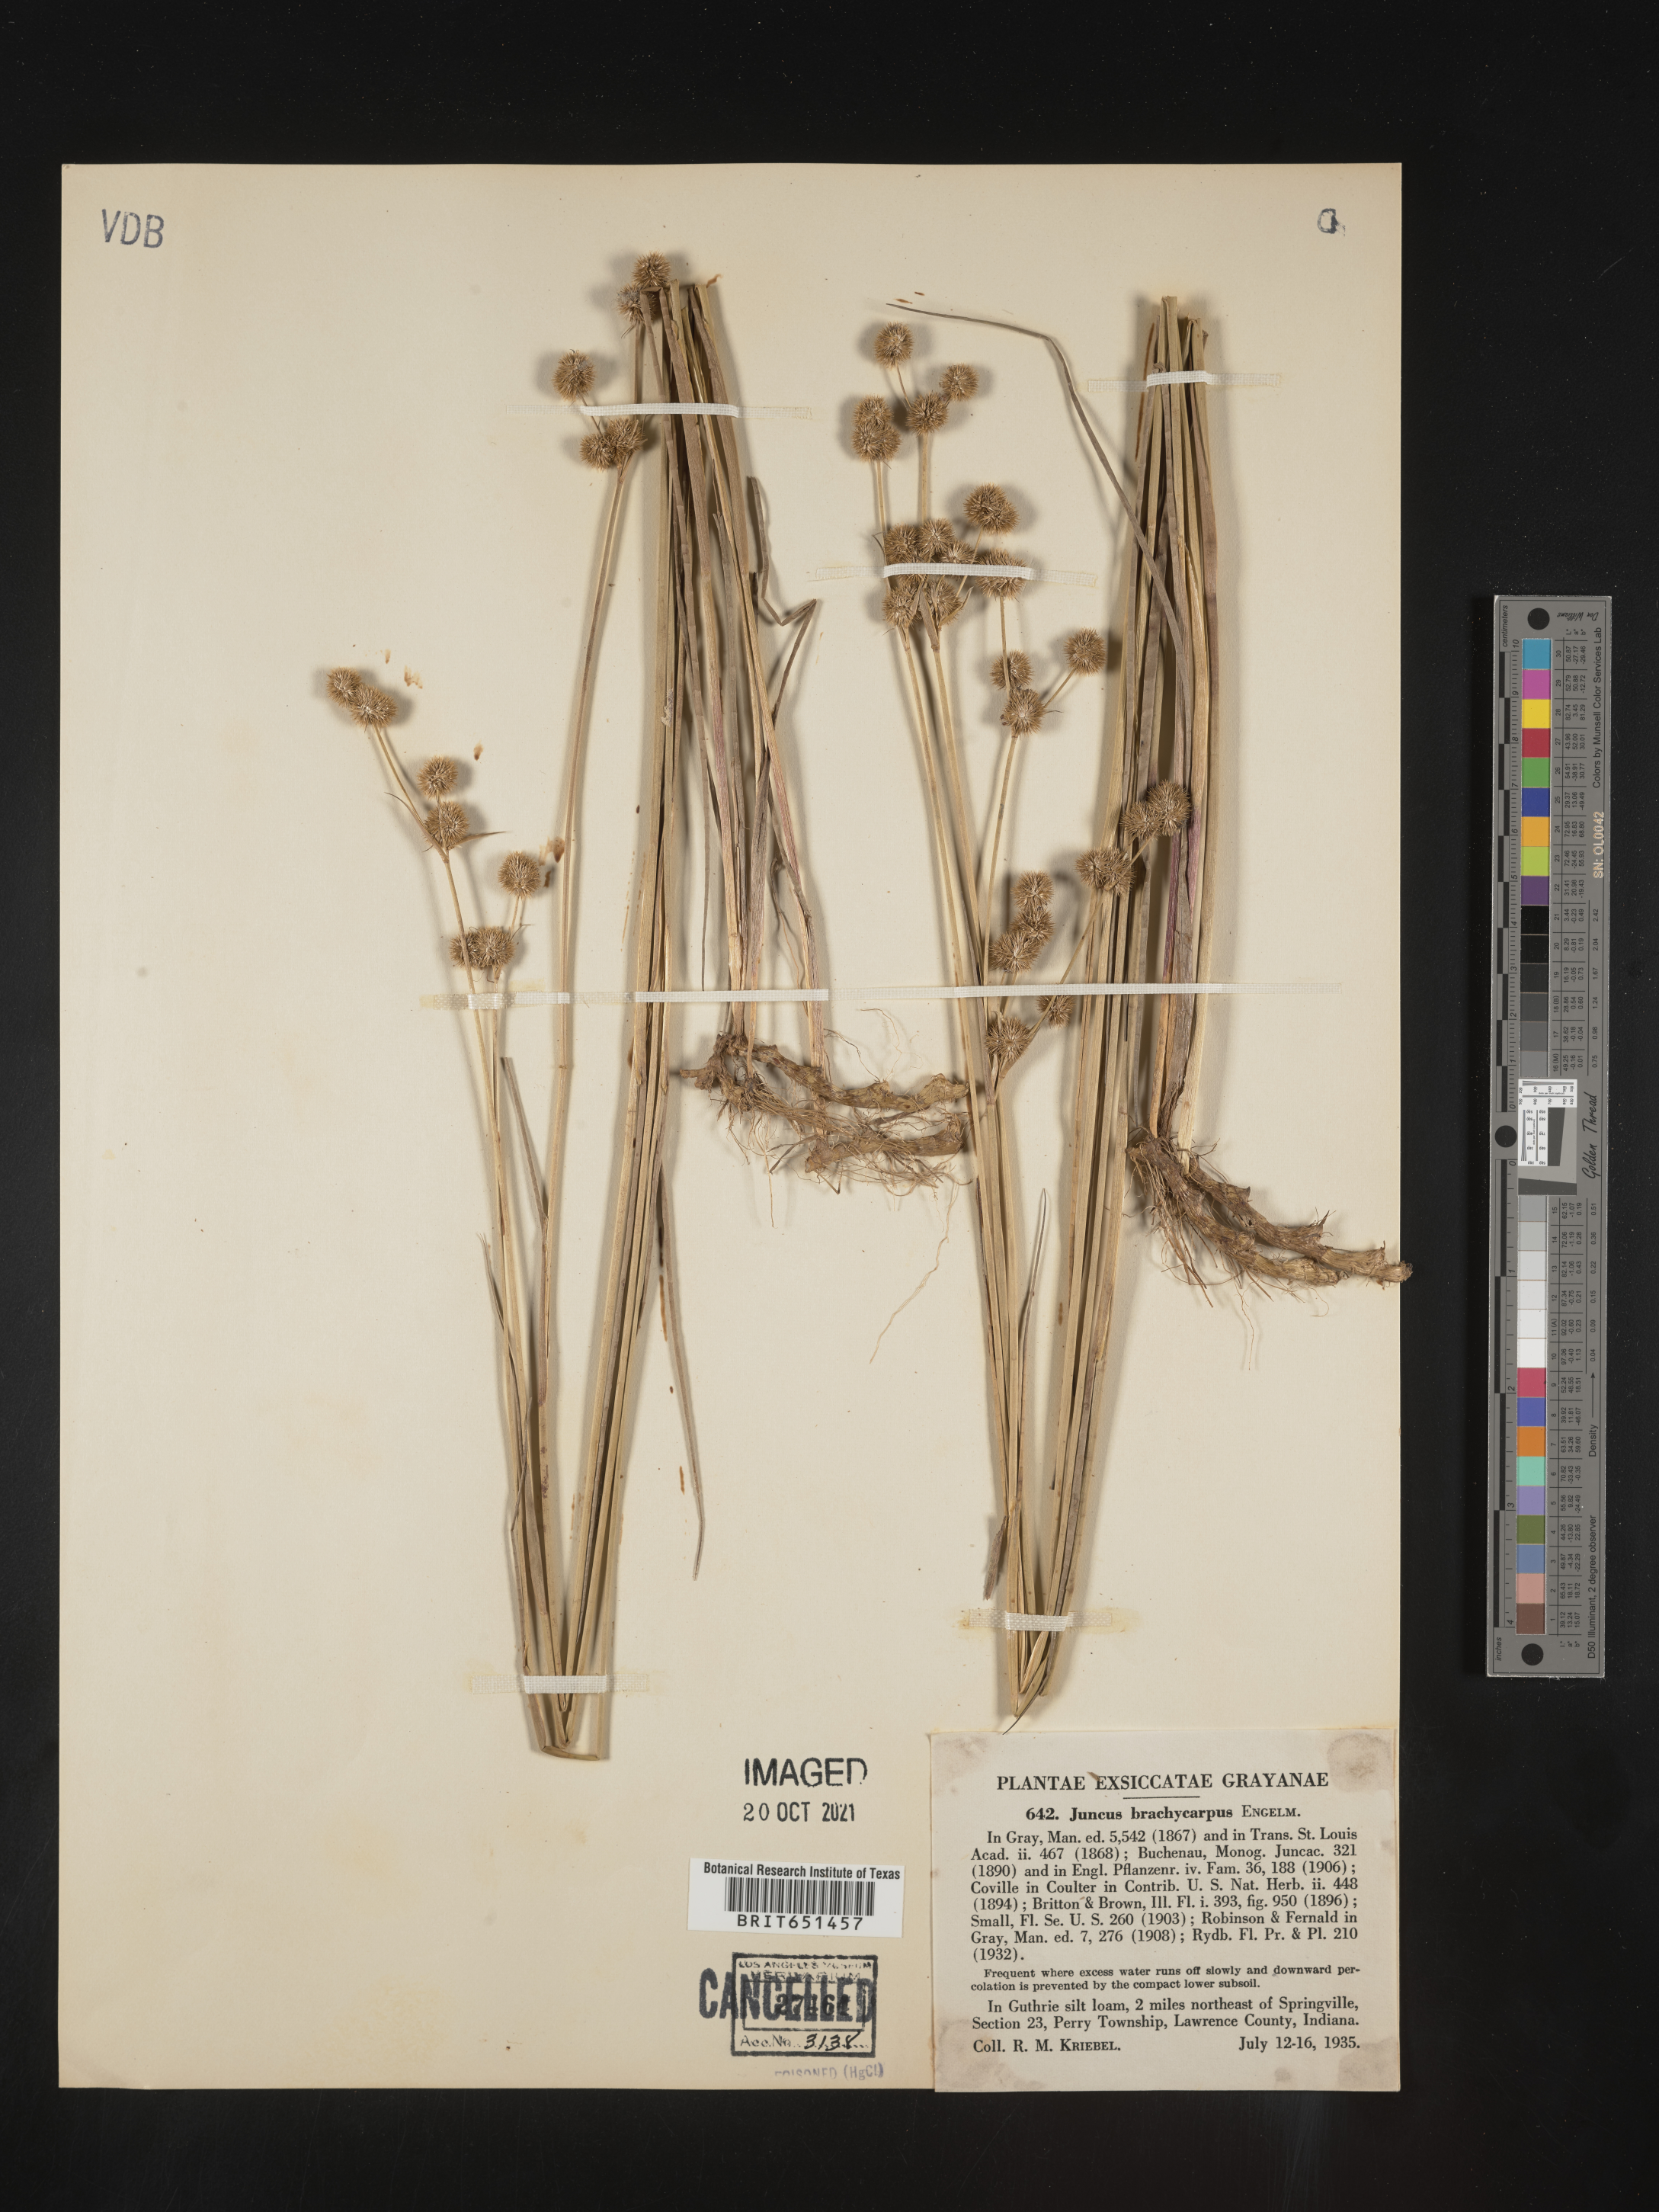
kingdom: Plantae
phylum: Tracheophyta
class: Liliopsida
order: Poales
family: Juncaceae
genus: Juncus
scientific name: Juncus brachycarpus
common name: Shore rush
